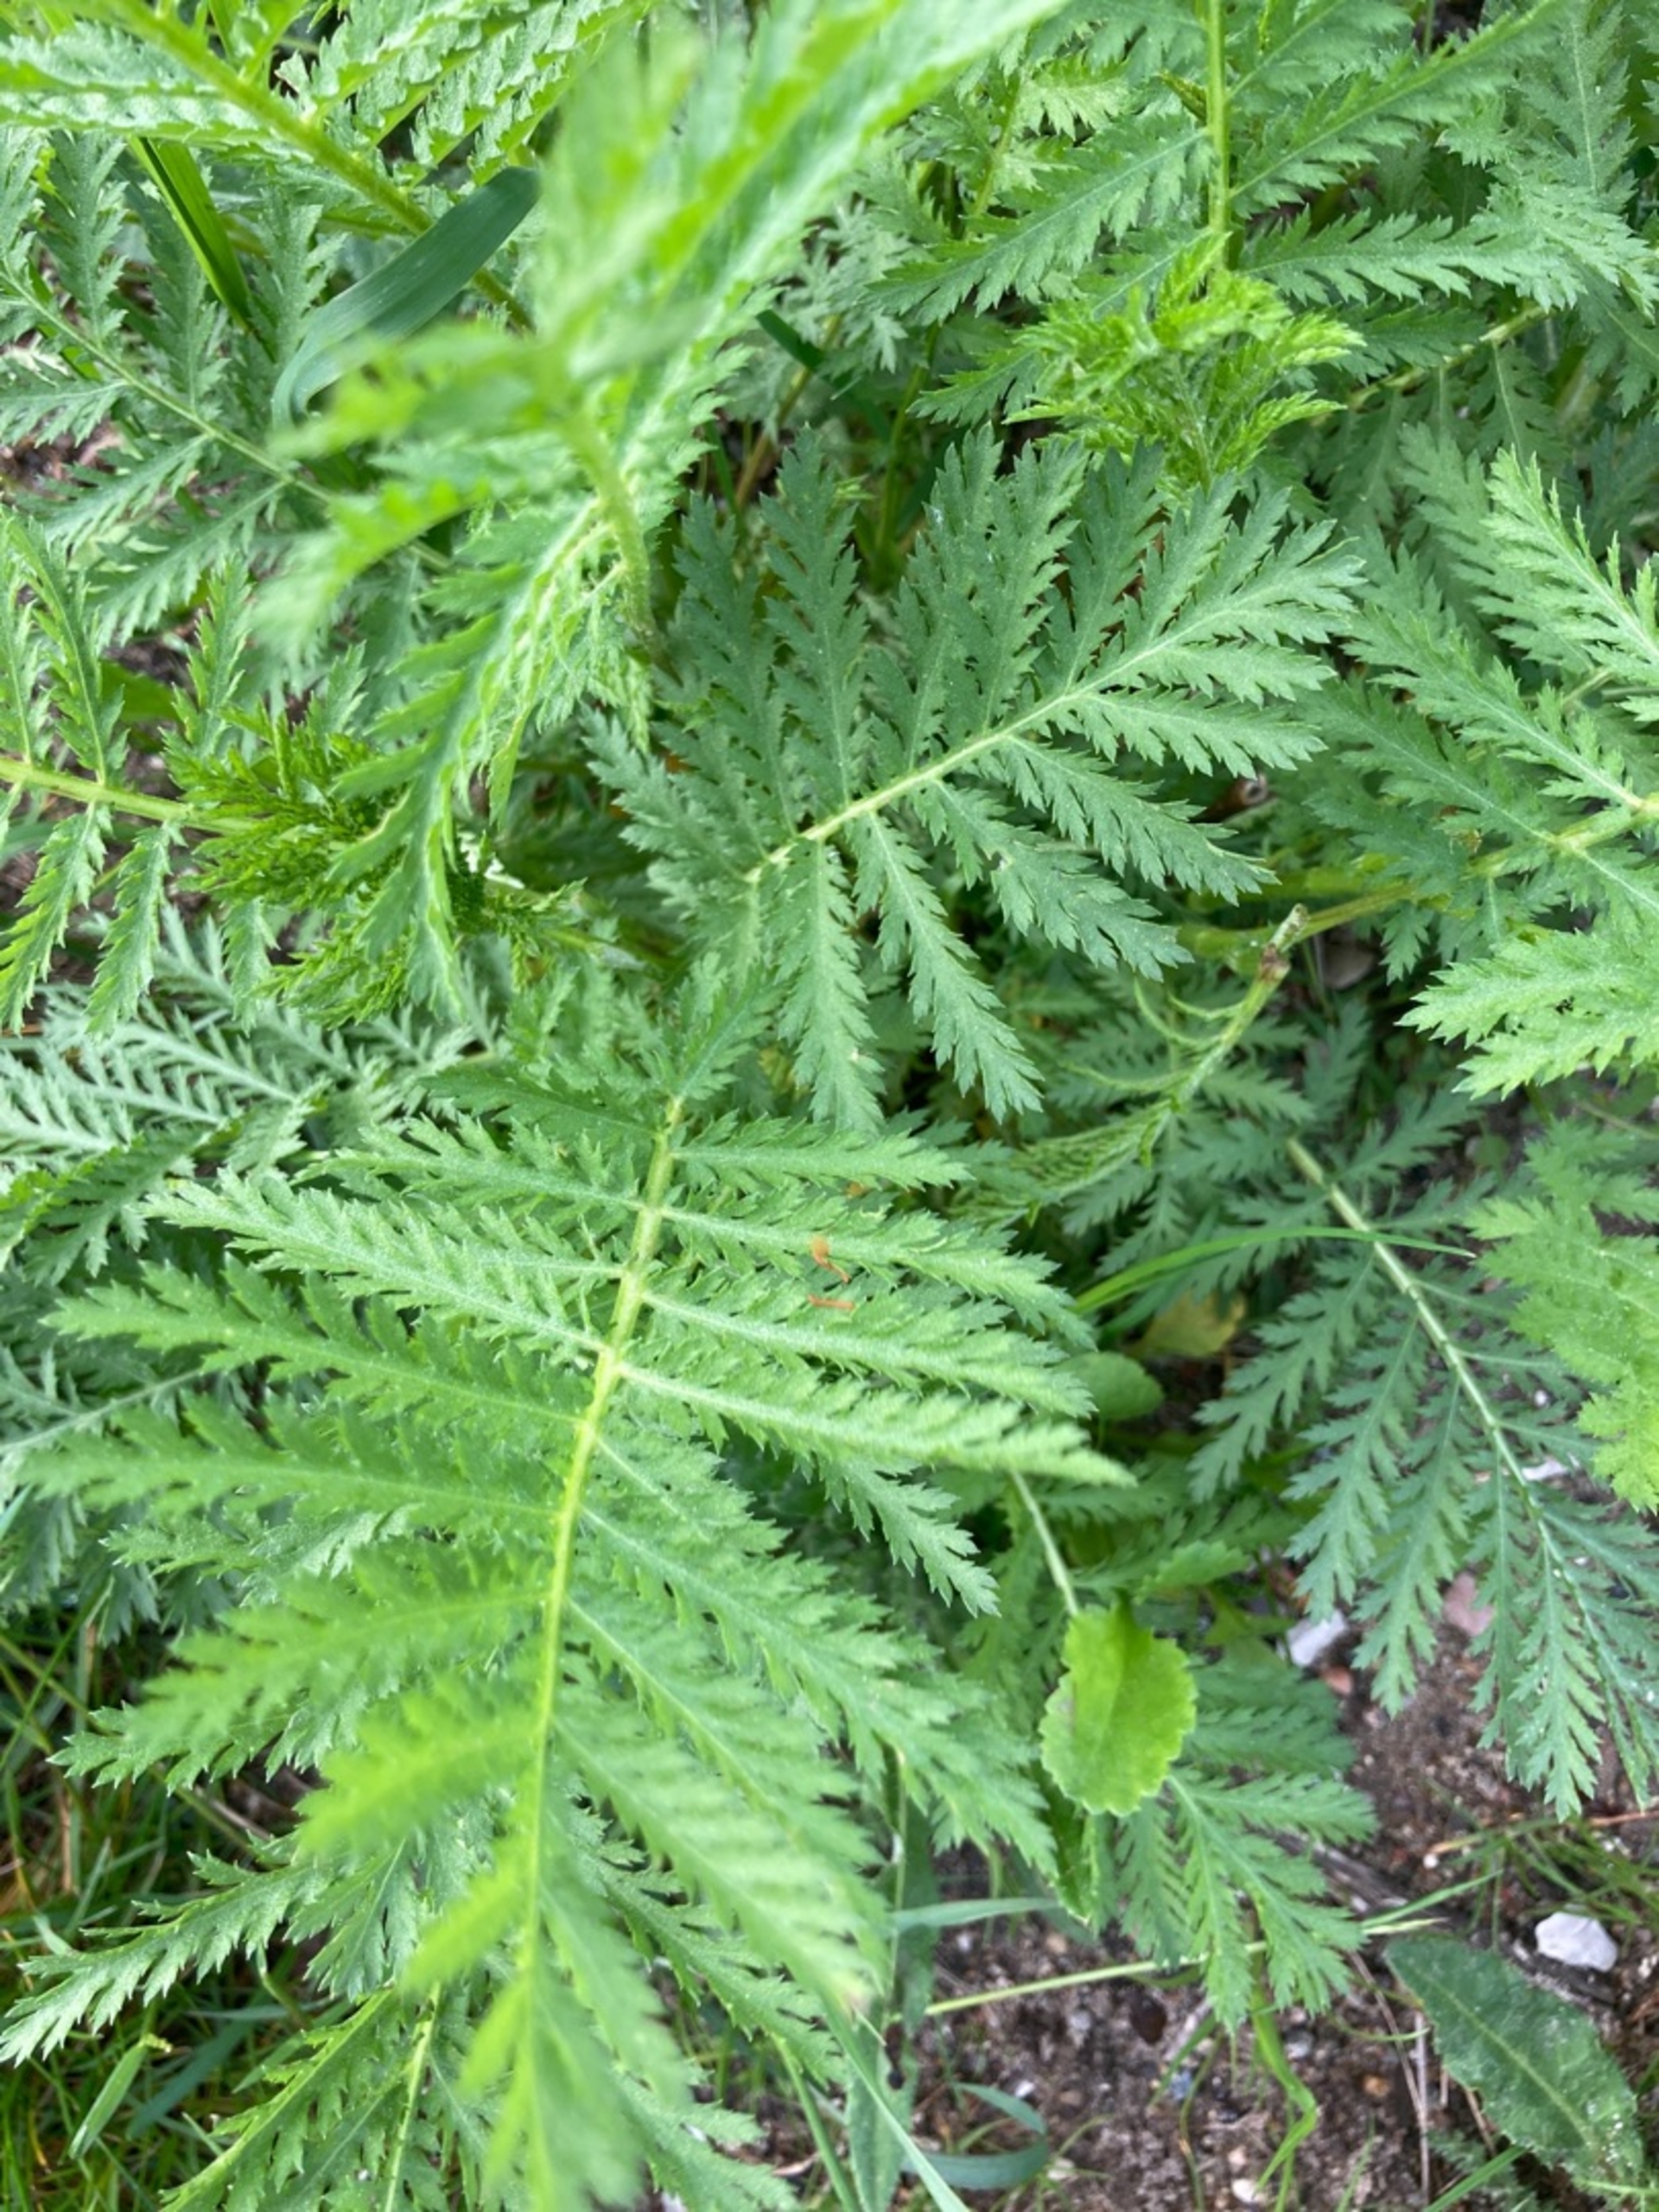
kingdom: Plantae
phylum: Tracheophyta
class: Magnoliopsida
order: Asterales
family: Asteraceae
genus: Tanacetum
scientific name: Tanacetum vulgare
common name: Rejnfan
